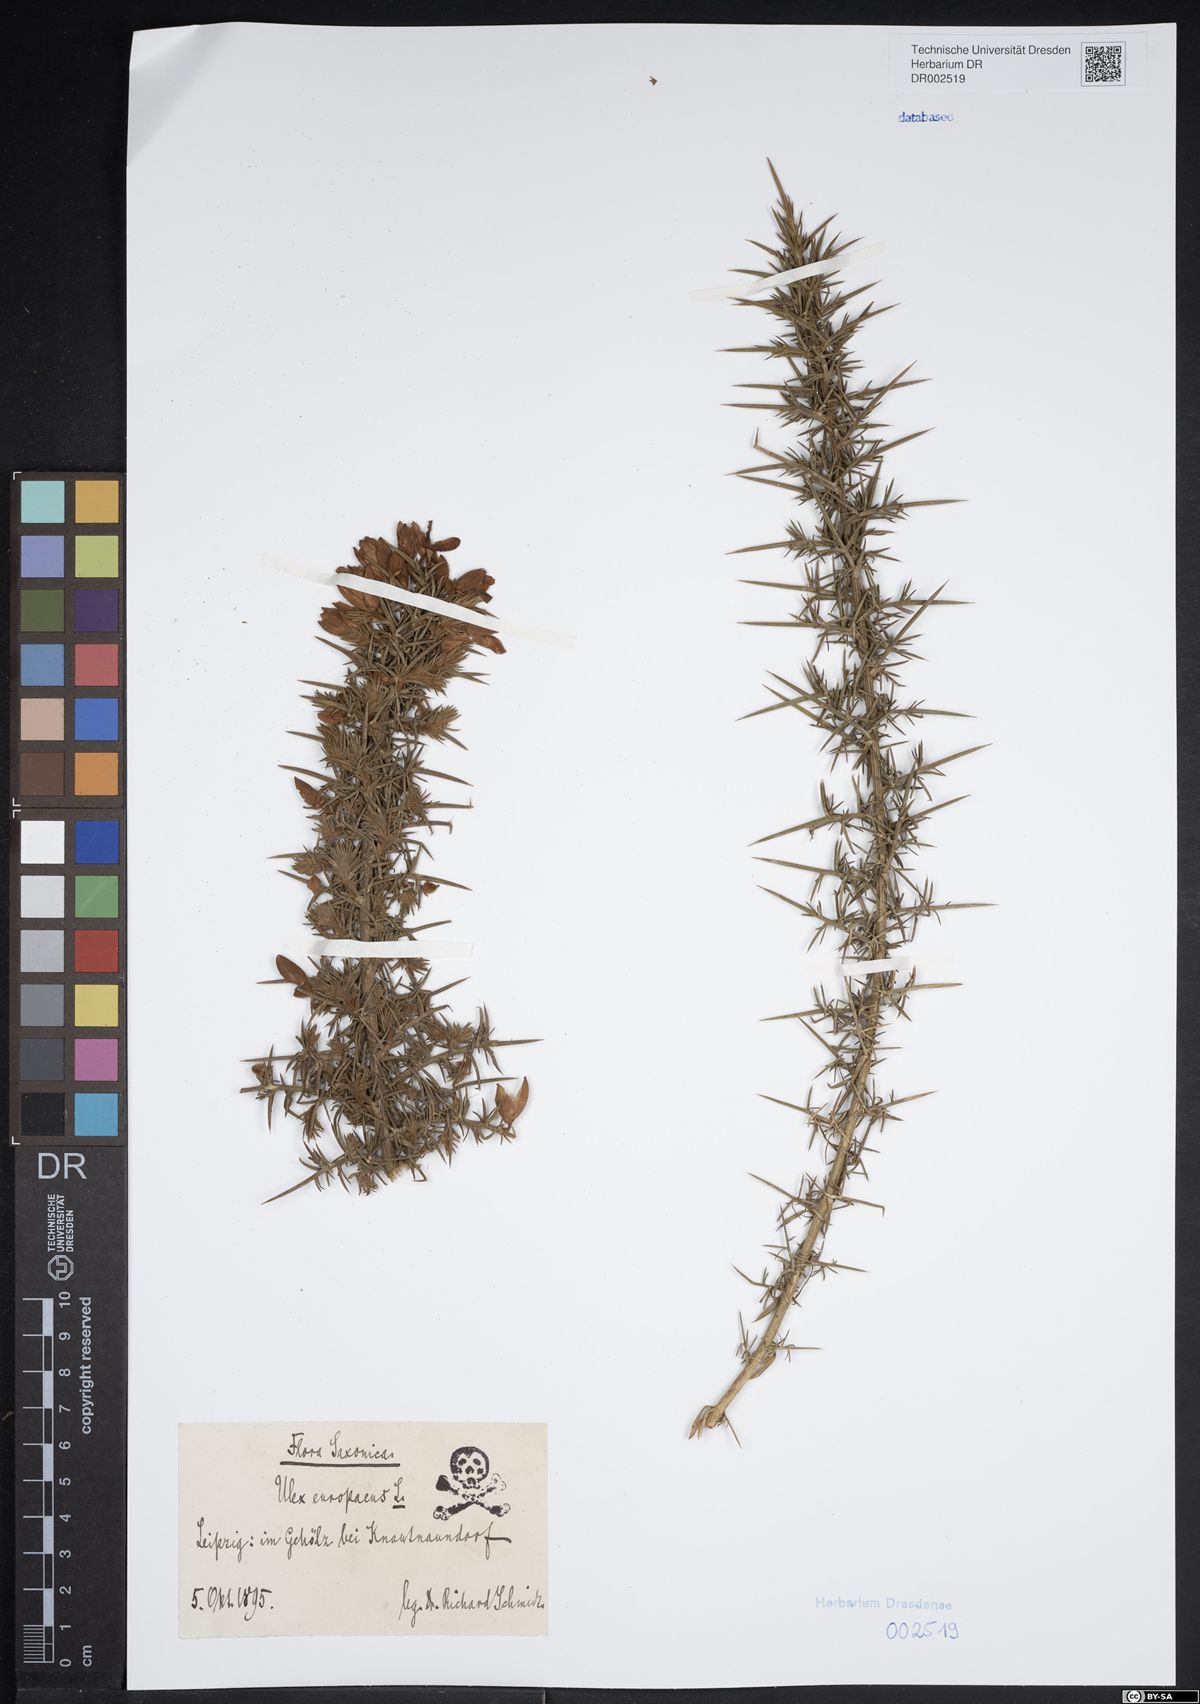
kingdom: Plantae
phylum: Tracheophyta
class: Magnoliopsida
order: Fabales
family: Fabaceae
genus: Ulex
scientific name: Ulex europaeus
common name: Common gorse
